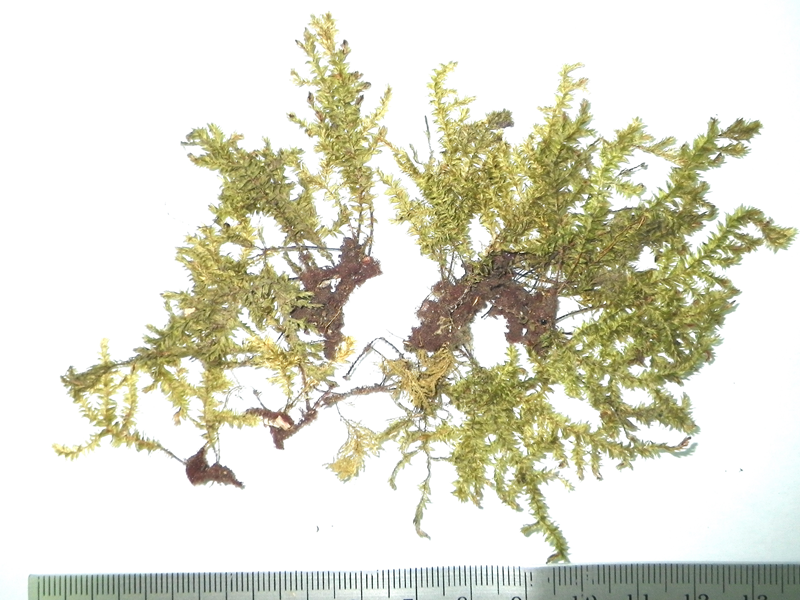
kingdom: Plantae
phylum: Bryophyta
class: Bryopsida
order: Hypnales
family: Trachylomataceae
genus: Trachyloma
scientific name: Trachyloma indicum
